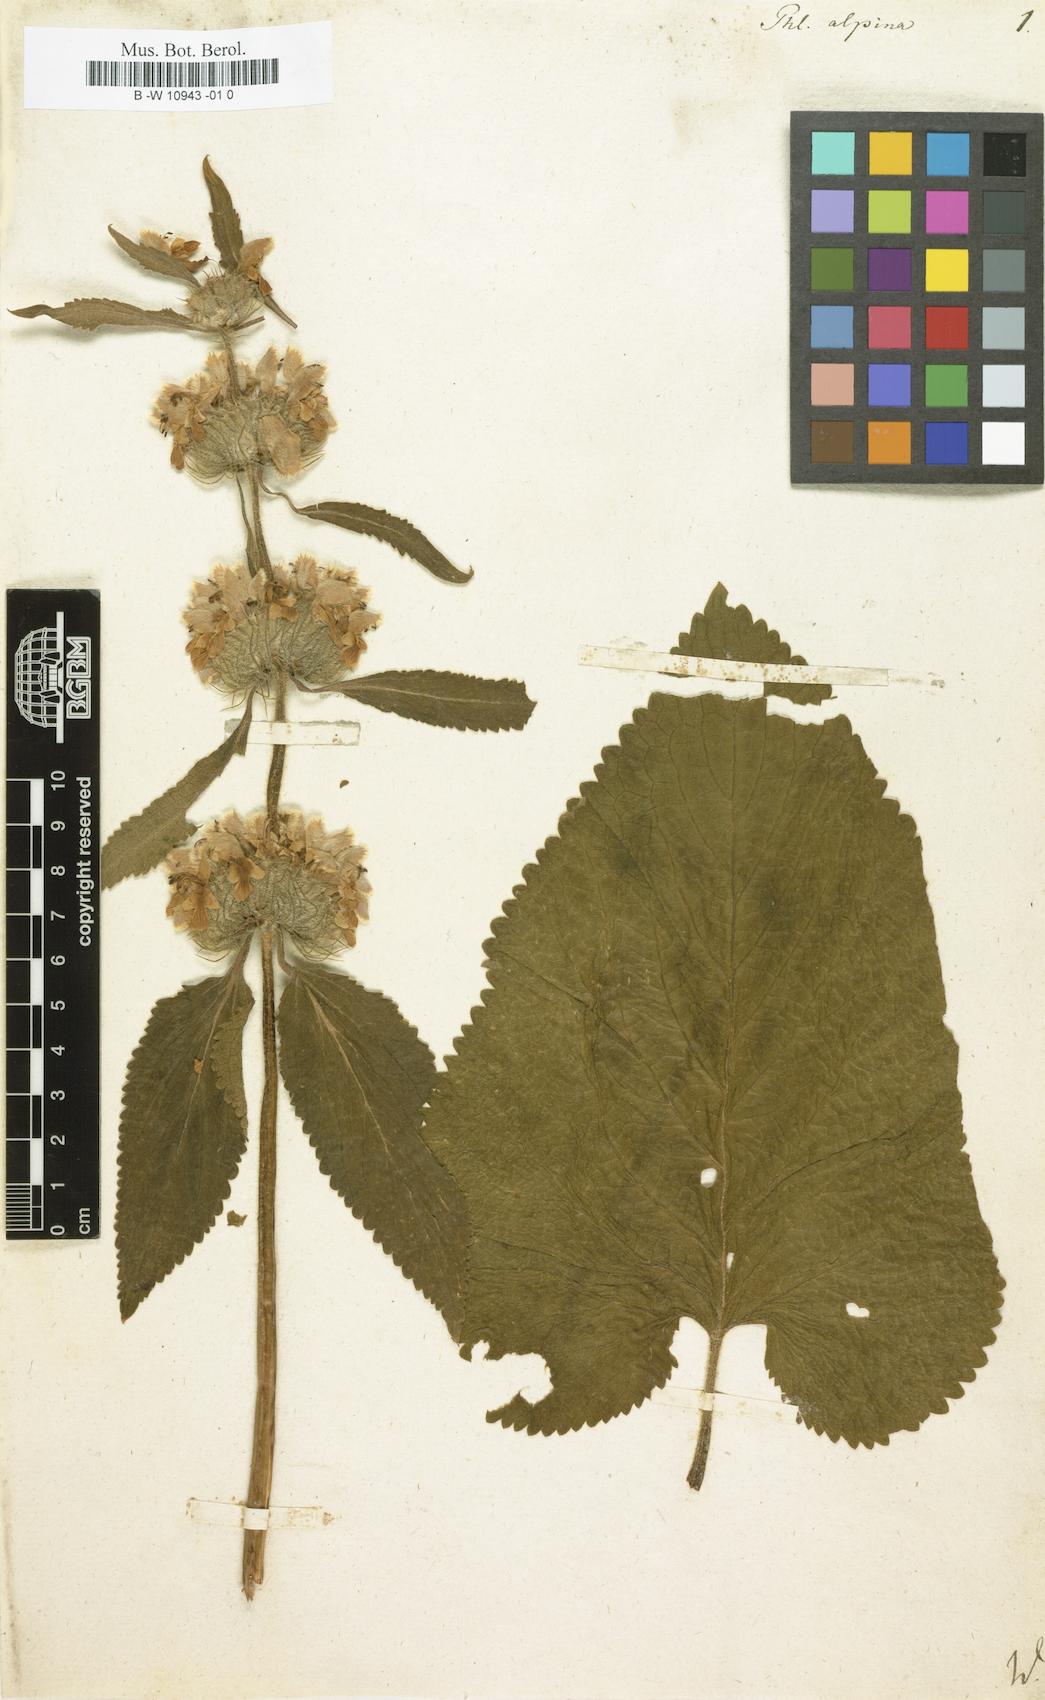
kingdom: Plantae
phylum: Tracheophyta
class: Magnoliopsida
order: Lamiales
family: Lamiaceae
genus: Phlomoides
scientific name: Phlomoides alpina
